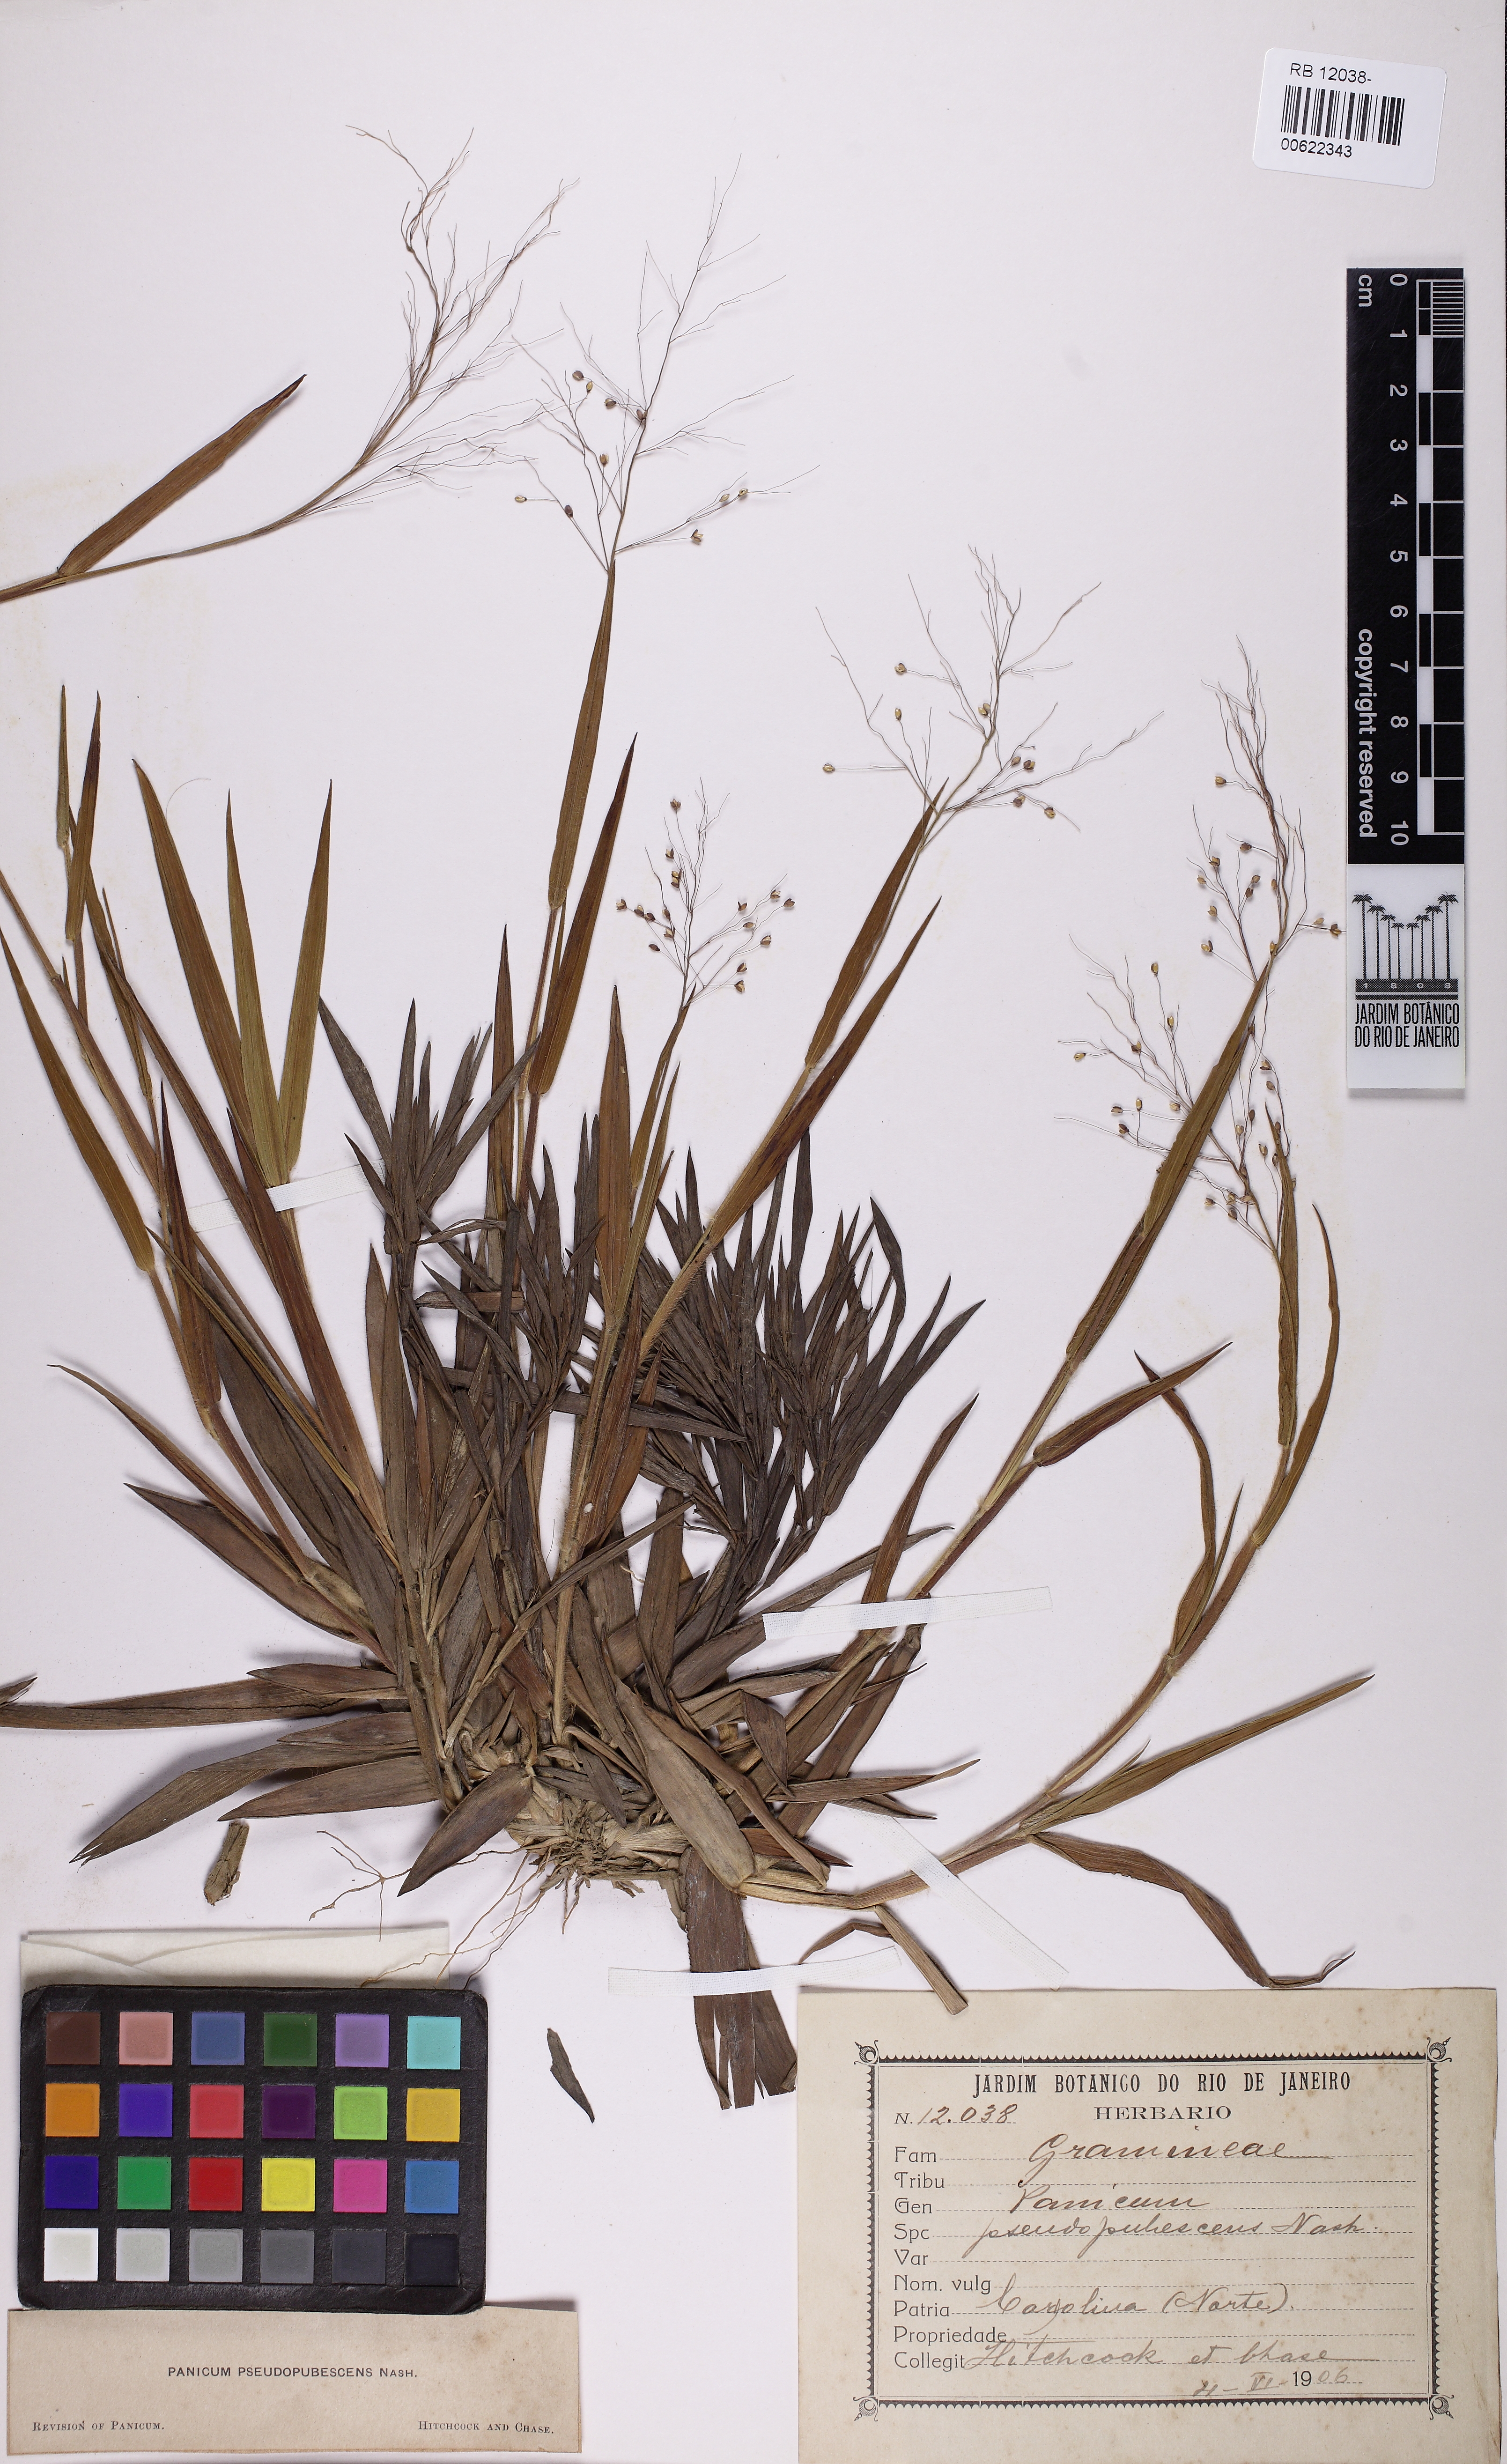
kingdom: Plantae
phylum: Tracheophyta
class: Liliopsida
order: Poales
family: Poaceae
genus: Dichanthelium
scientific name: Dichanthelium villosissimum
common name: White-haired panicgrass
